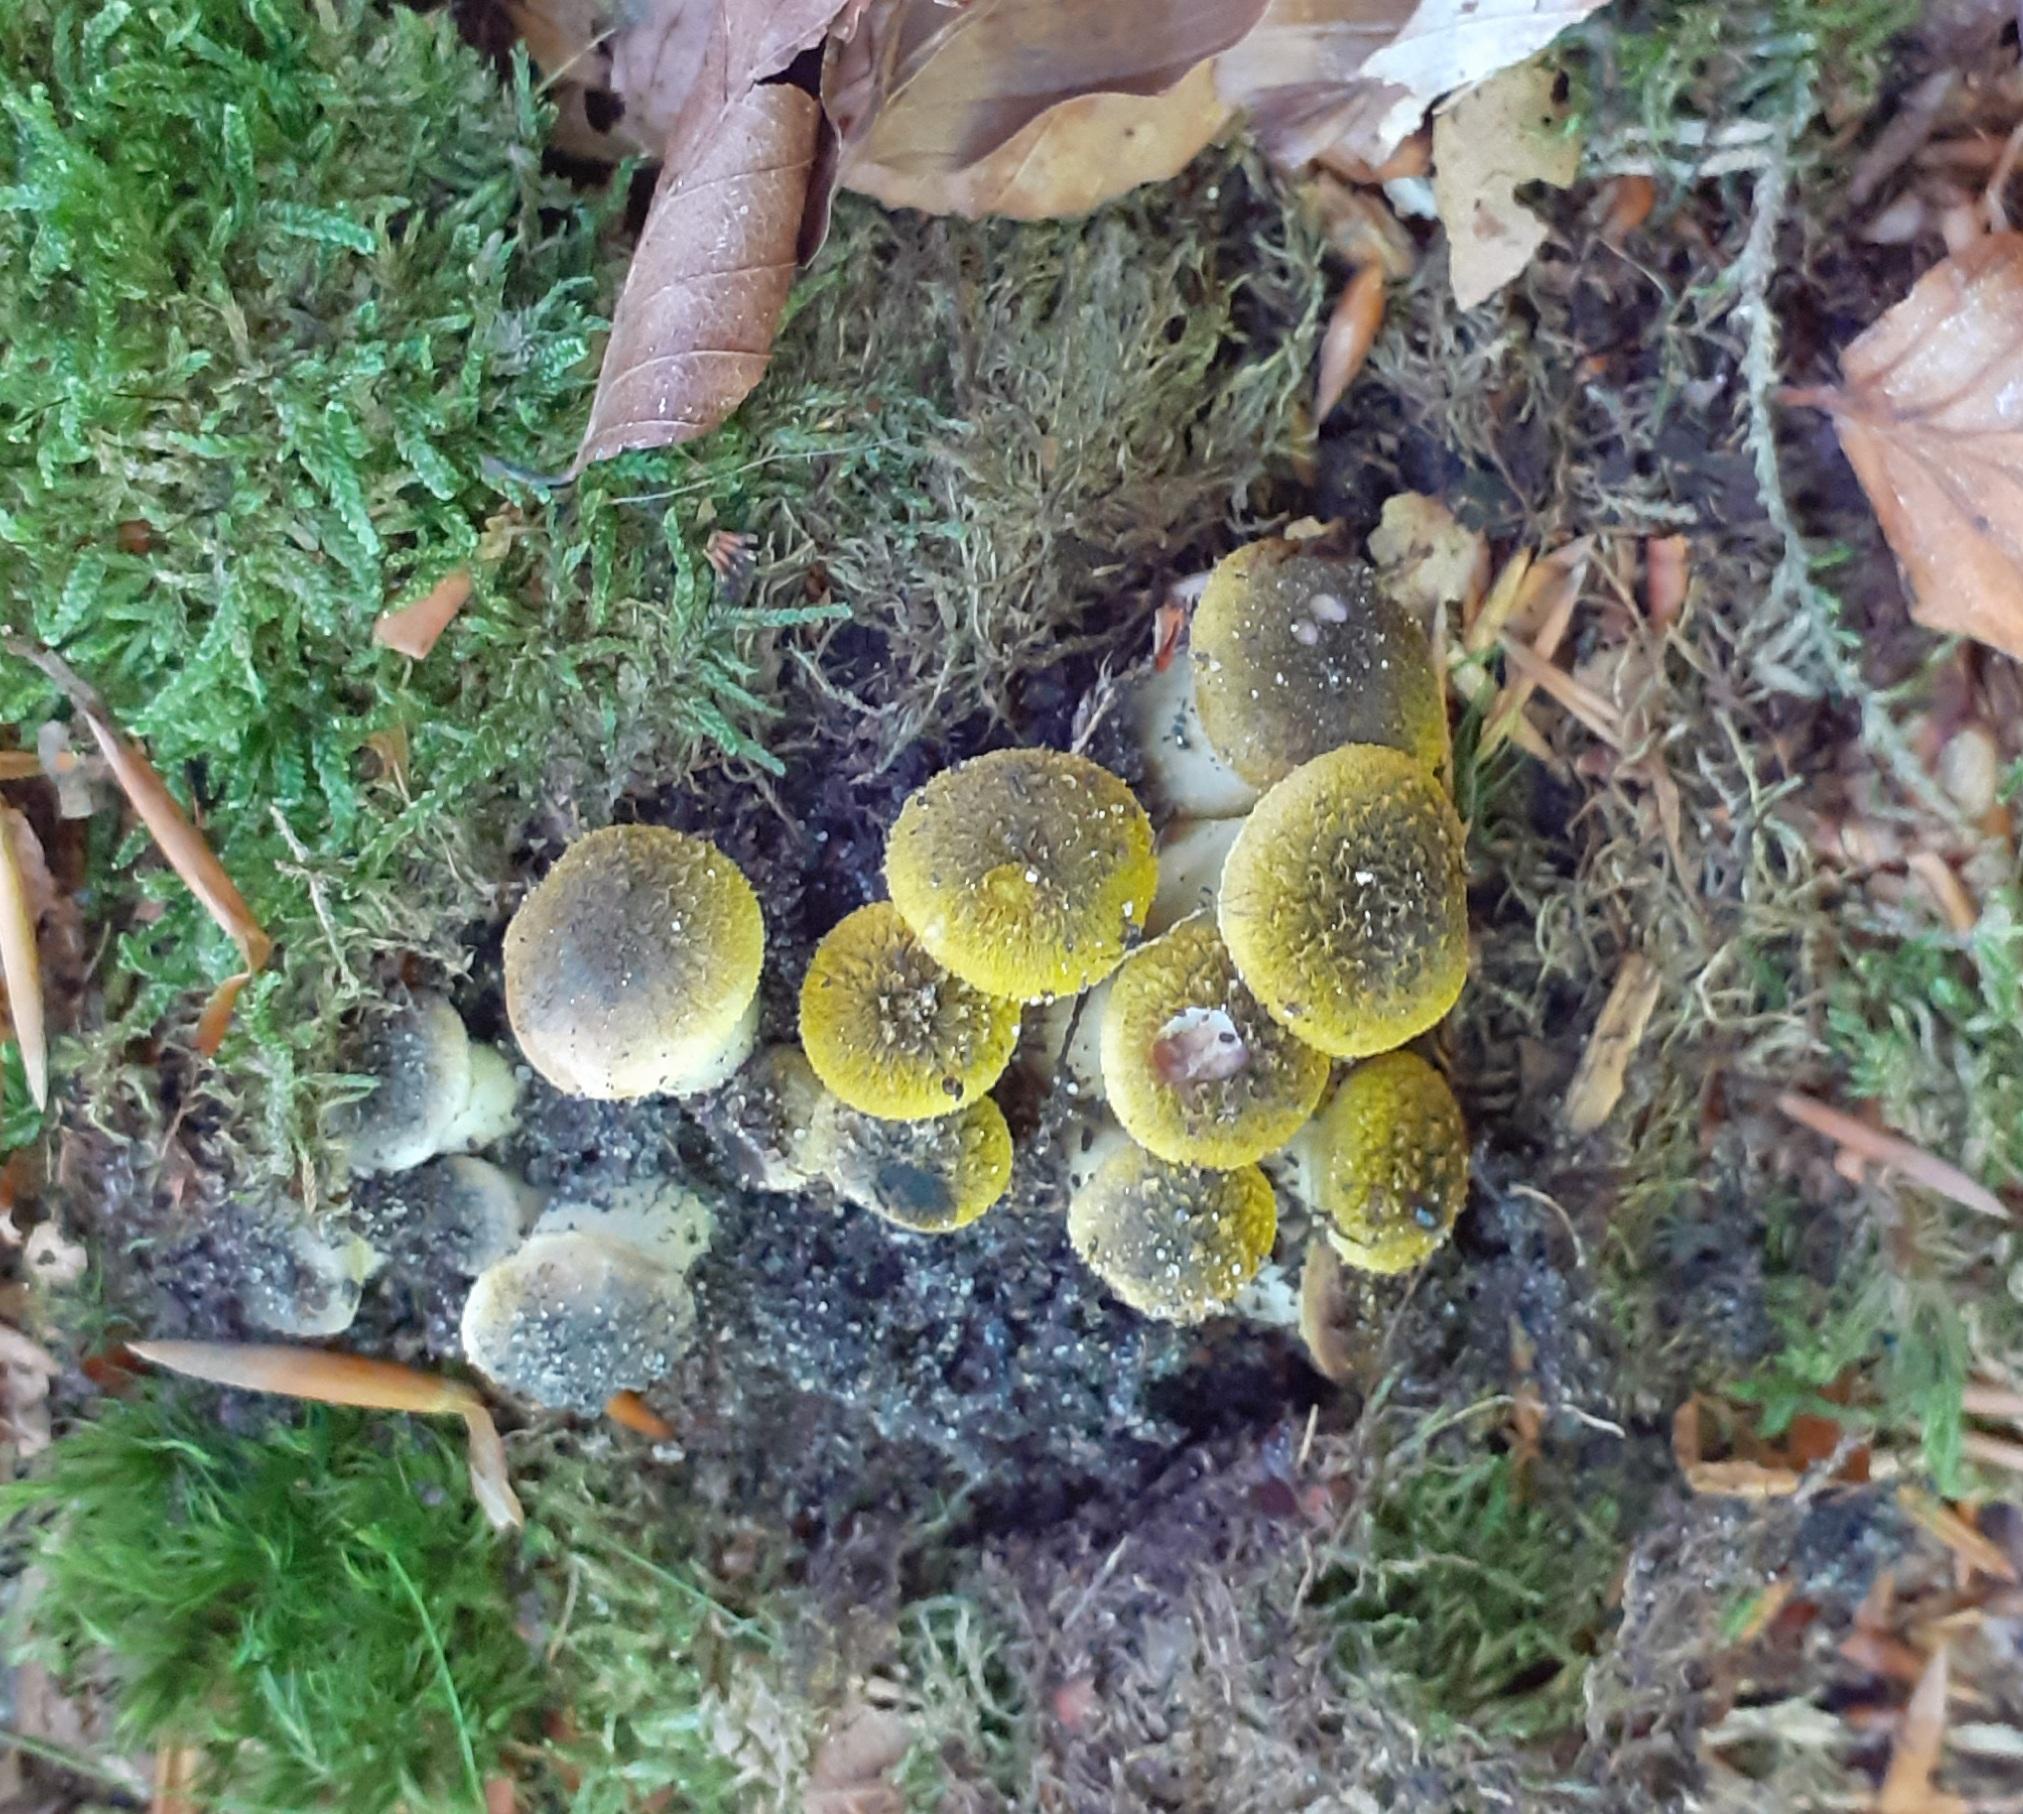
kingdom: Fungi
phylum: Basidiomycota
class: Agaricomycetes
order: Agaricales
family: Physalacriaceae
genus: Armillaria
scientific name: Armillaria mellea
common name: ægte honningsvamp
